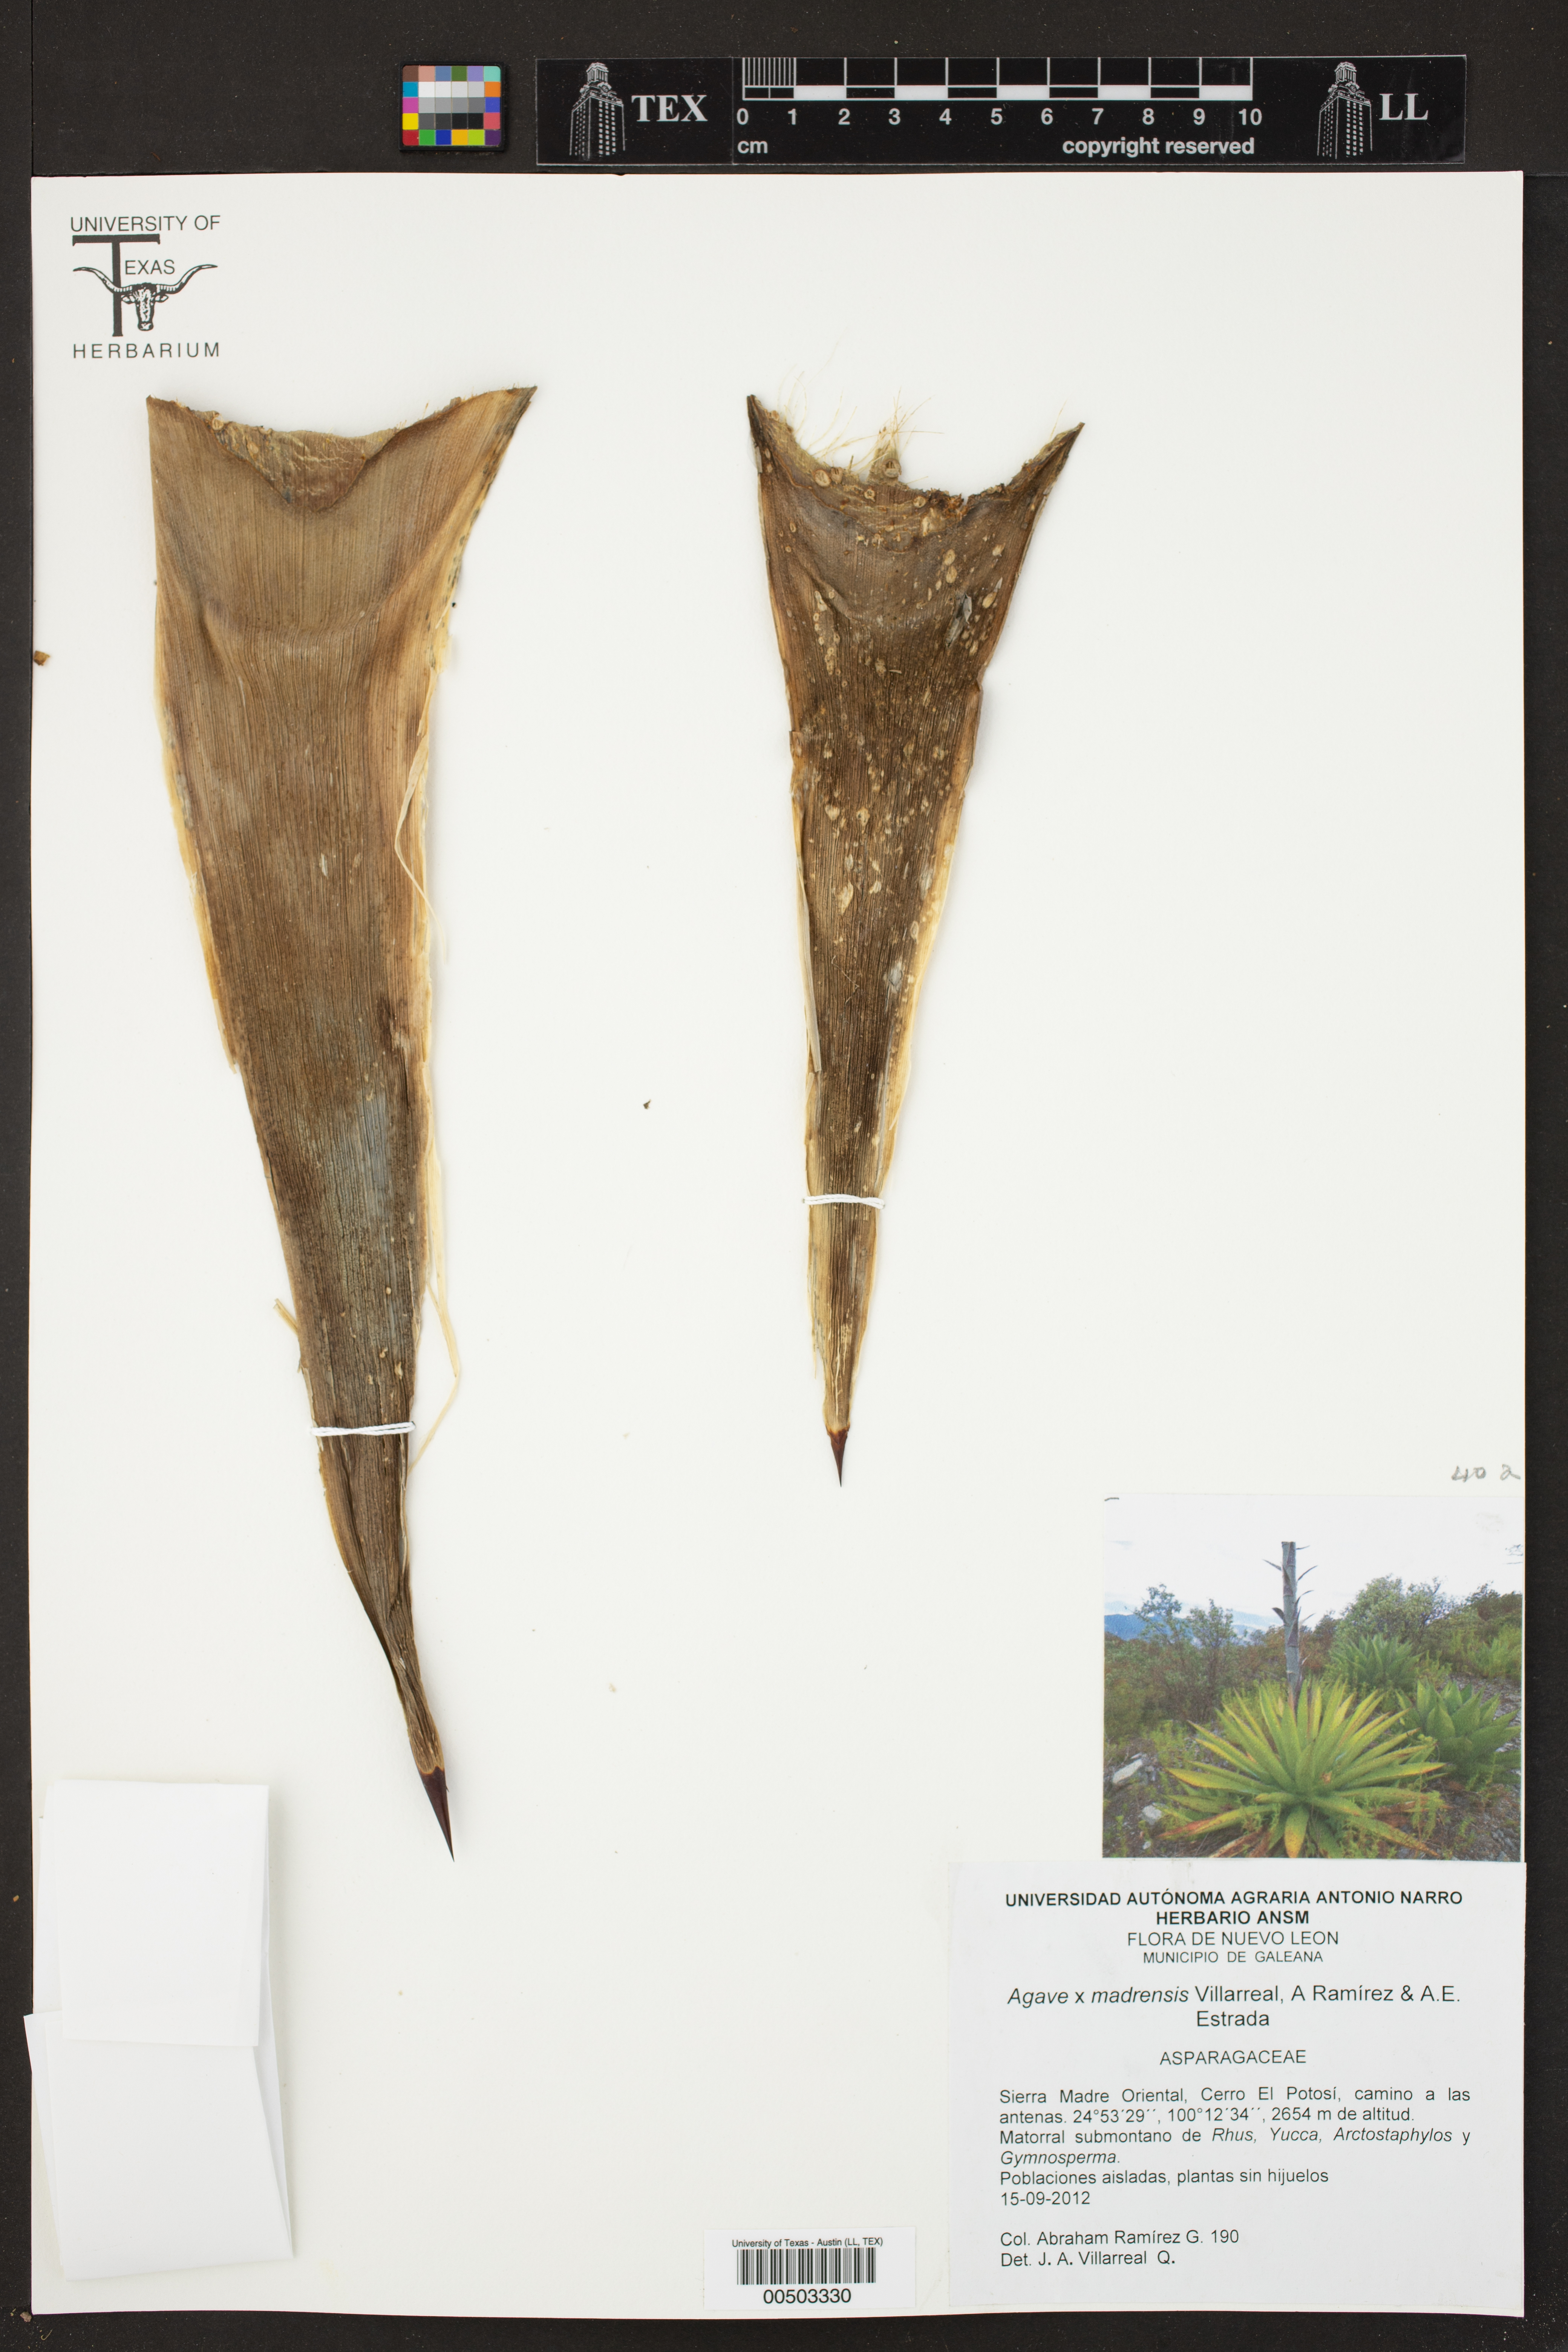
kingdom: Plantae
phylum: Tracheophyta
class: Liliopsida
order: Asparagales
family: Asparagaceae
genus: Agave
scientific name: Agave madrensis
